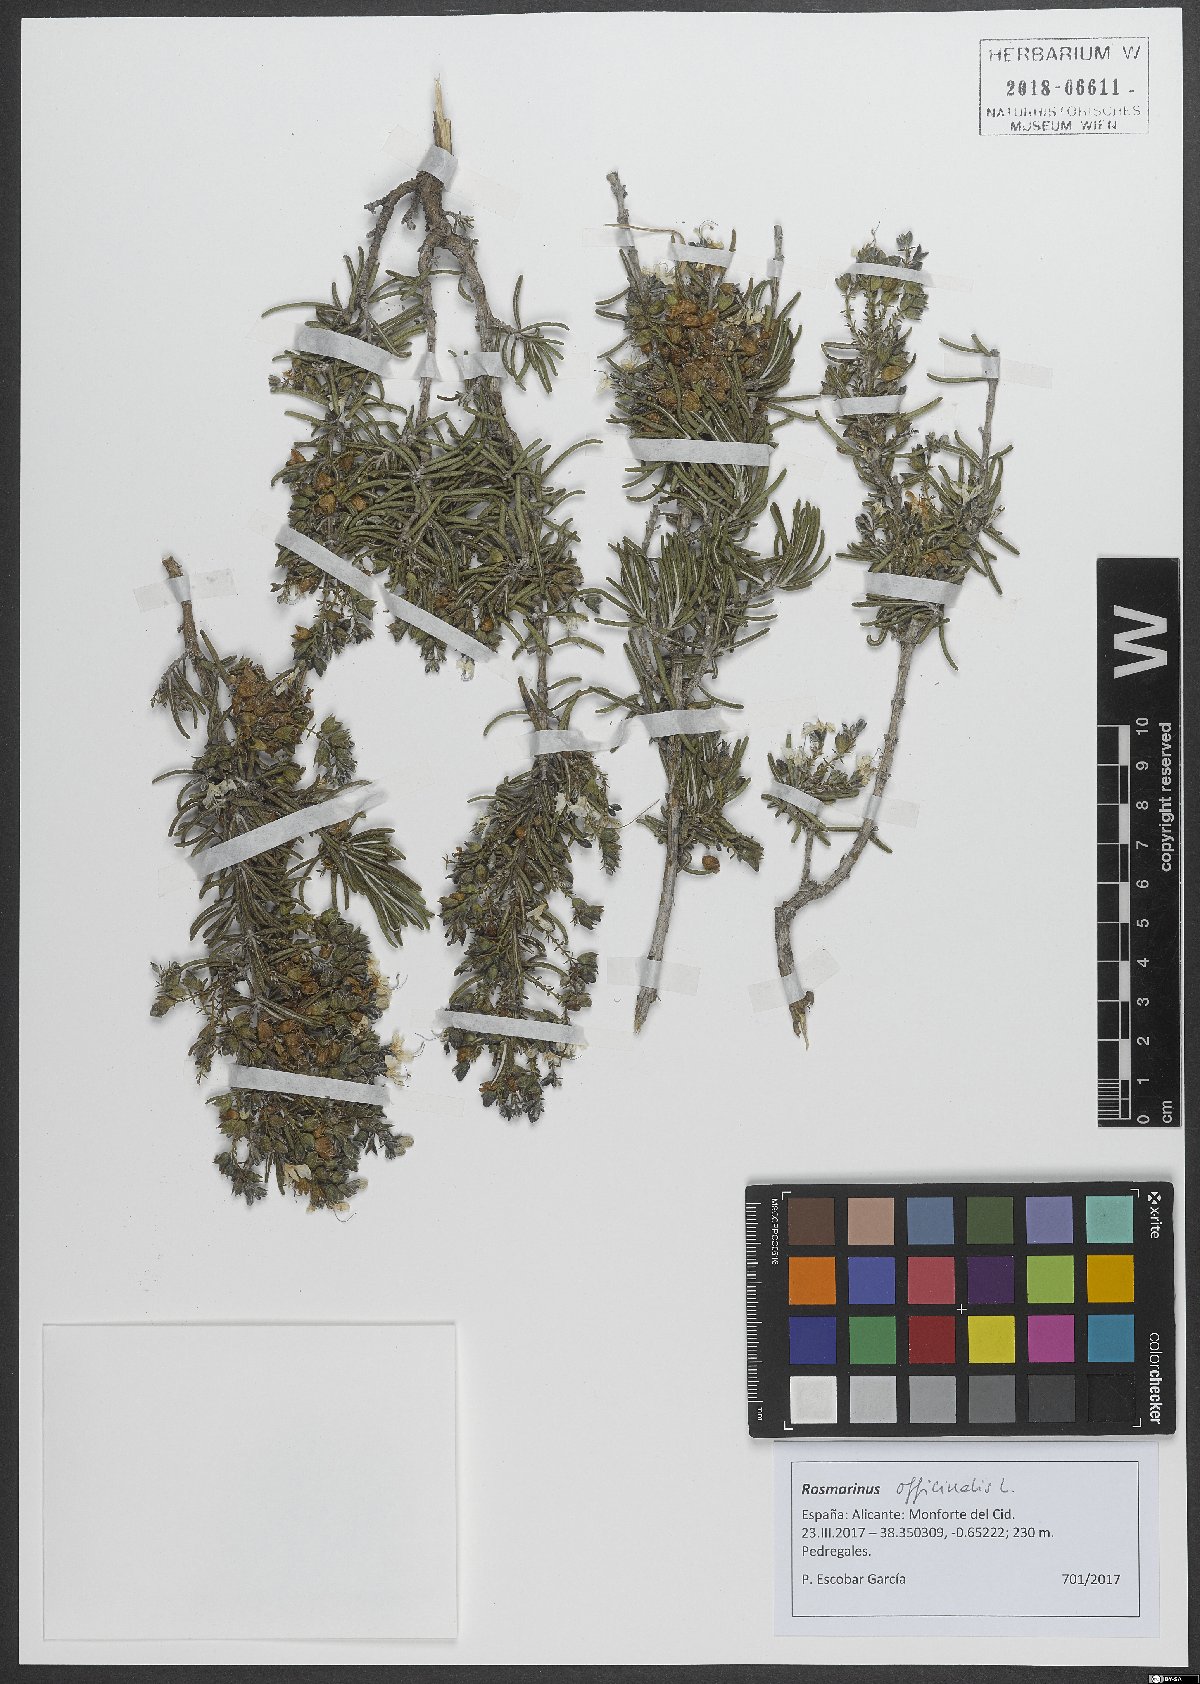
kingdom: Plantae
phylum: Tracheophyta
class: Magnoliopsida
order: Lamiales
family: Lamiaceae
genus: Salvia
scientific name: Salvia rosmarinus
